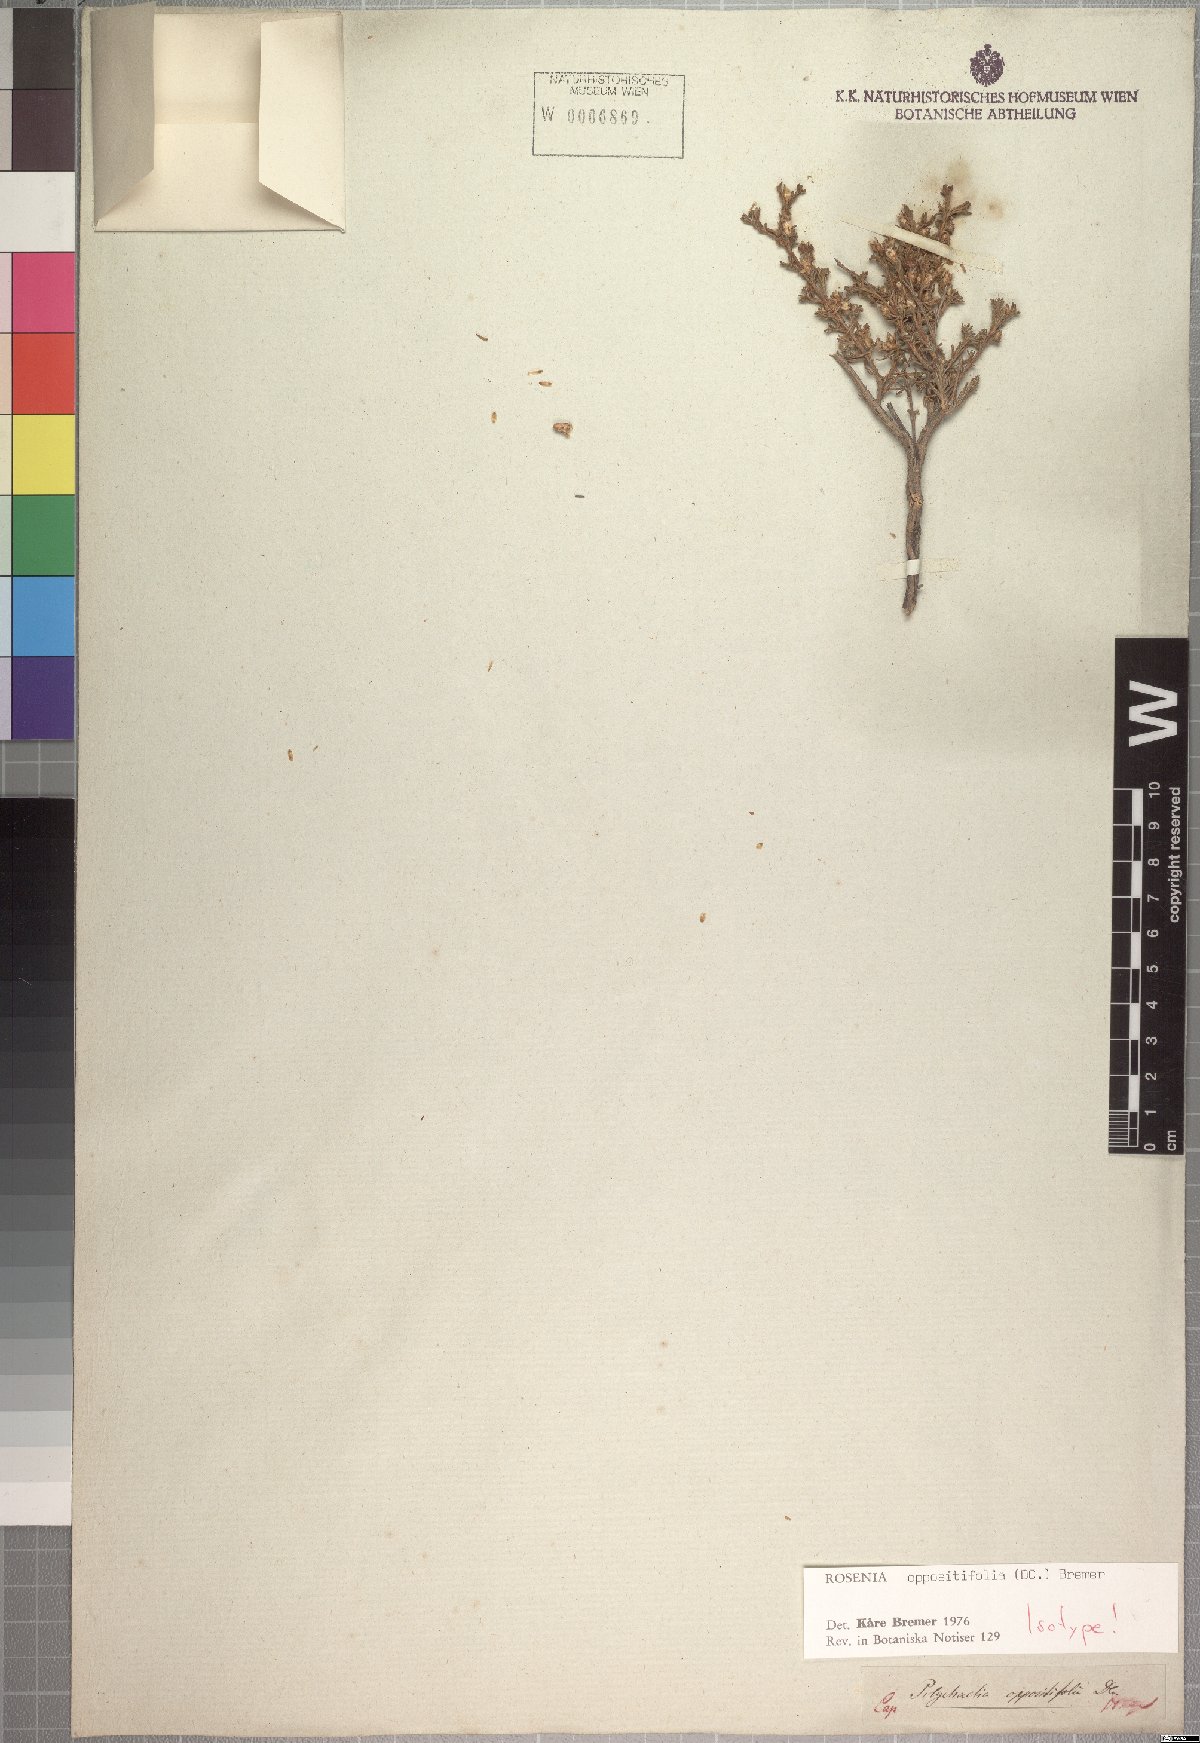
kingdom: Plantae
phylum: Tracheophyta
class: Magnoliopsida
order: Asterales
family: Asteraceae
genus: Oedera
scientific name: Oedera oppositifolia
